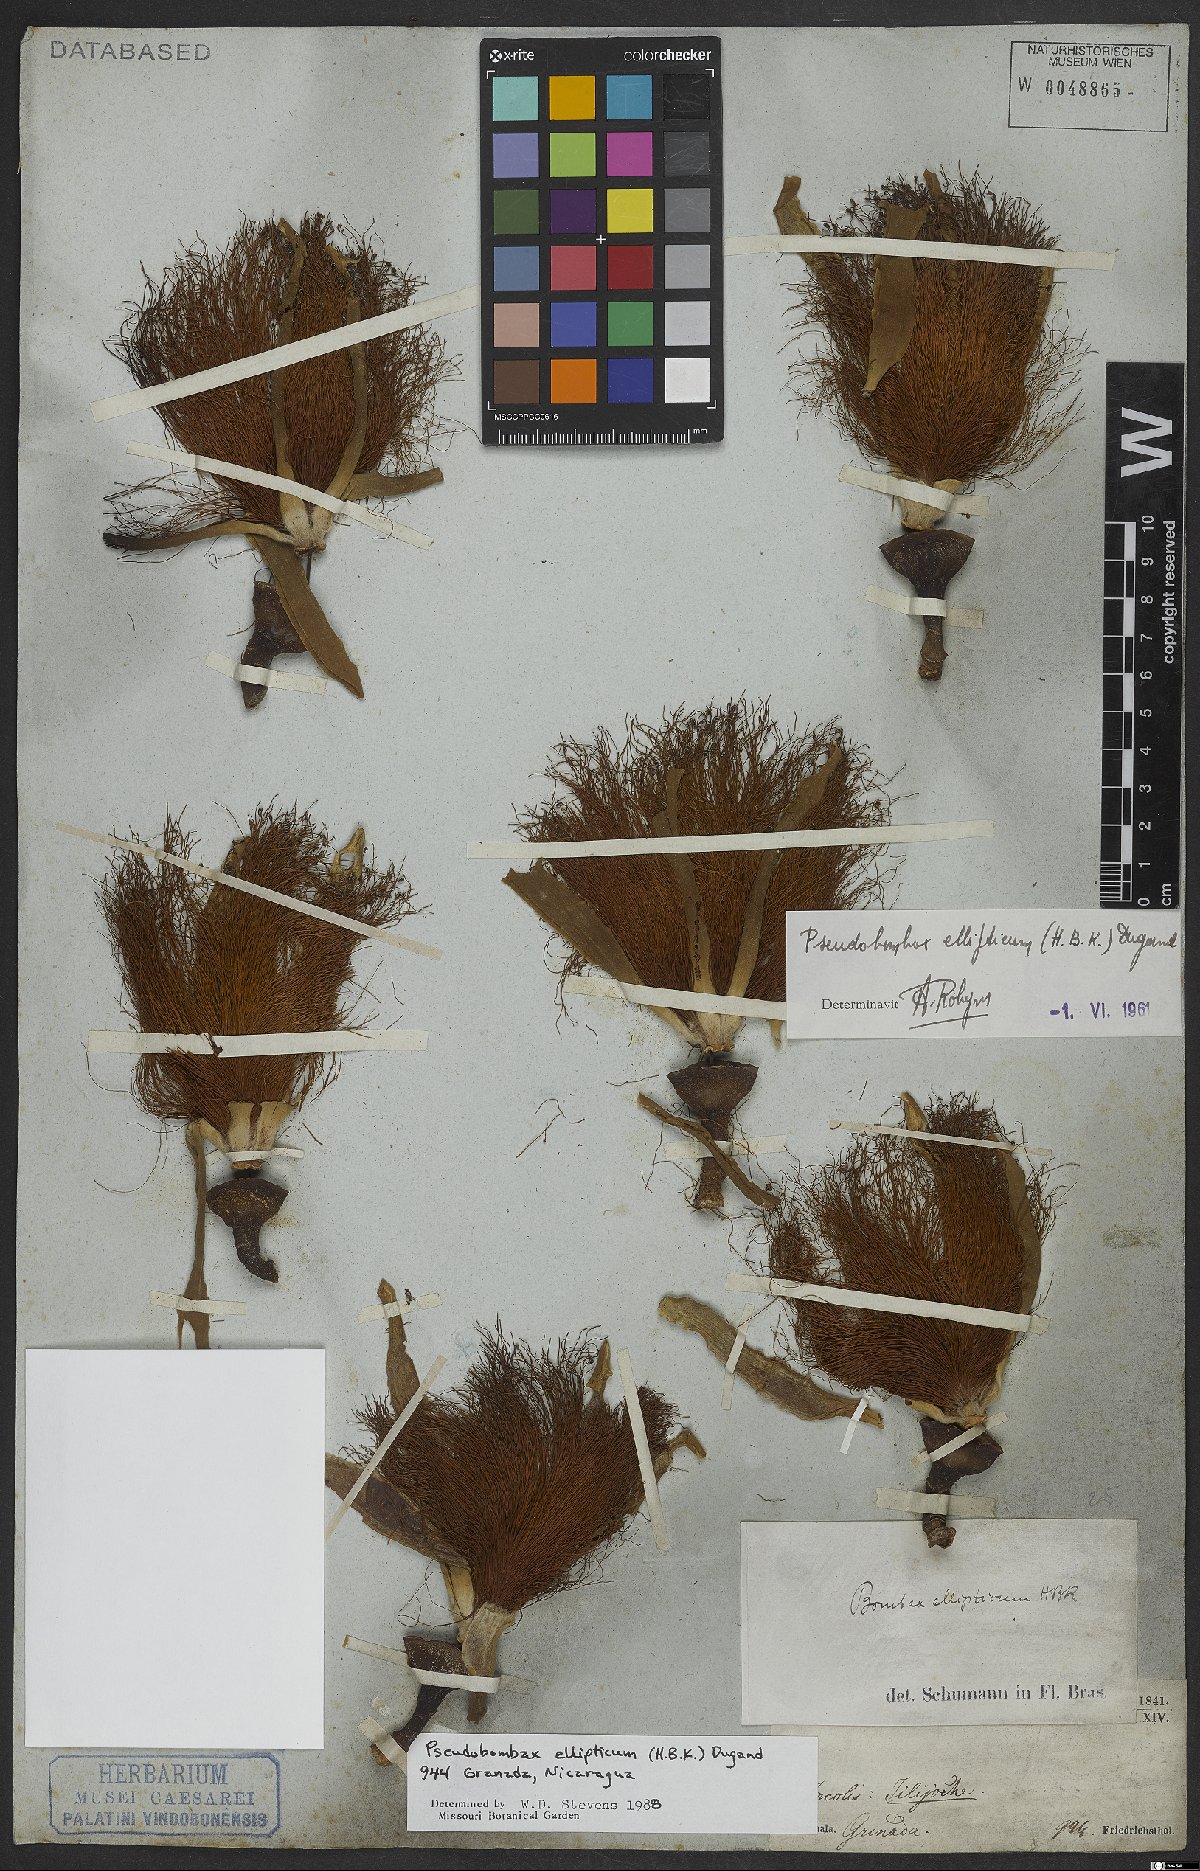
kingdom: Plantae
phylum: Tracheophyta
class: Magnoliopsida
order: Malvales
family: Malvaceae
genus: Pseudobombax
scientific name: Pseudobombax ellipticum
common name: Shaving-brush-tree
